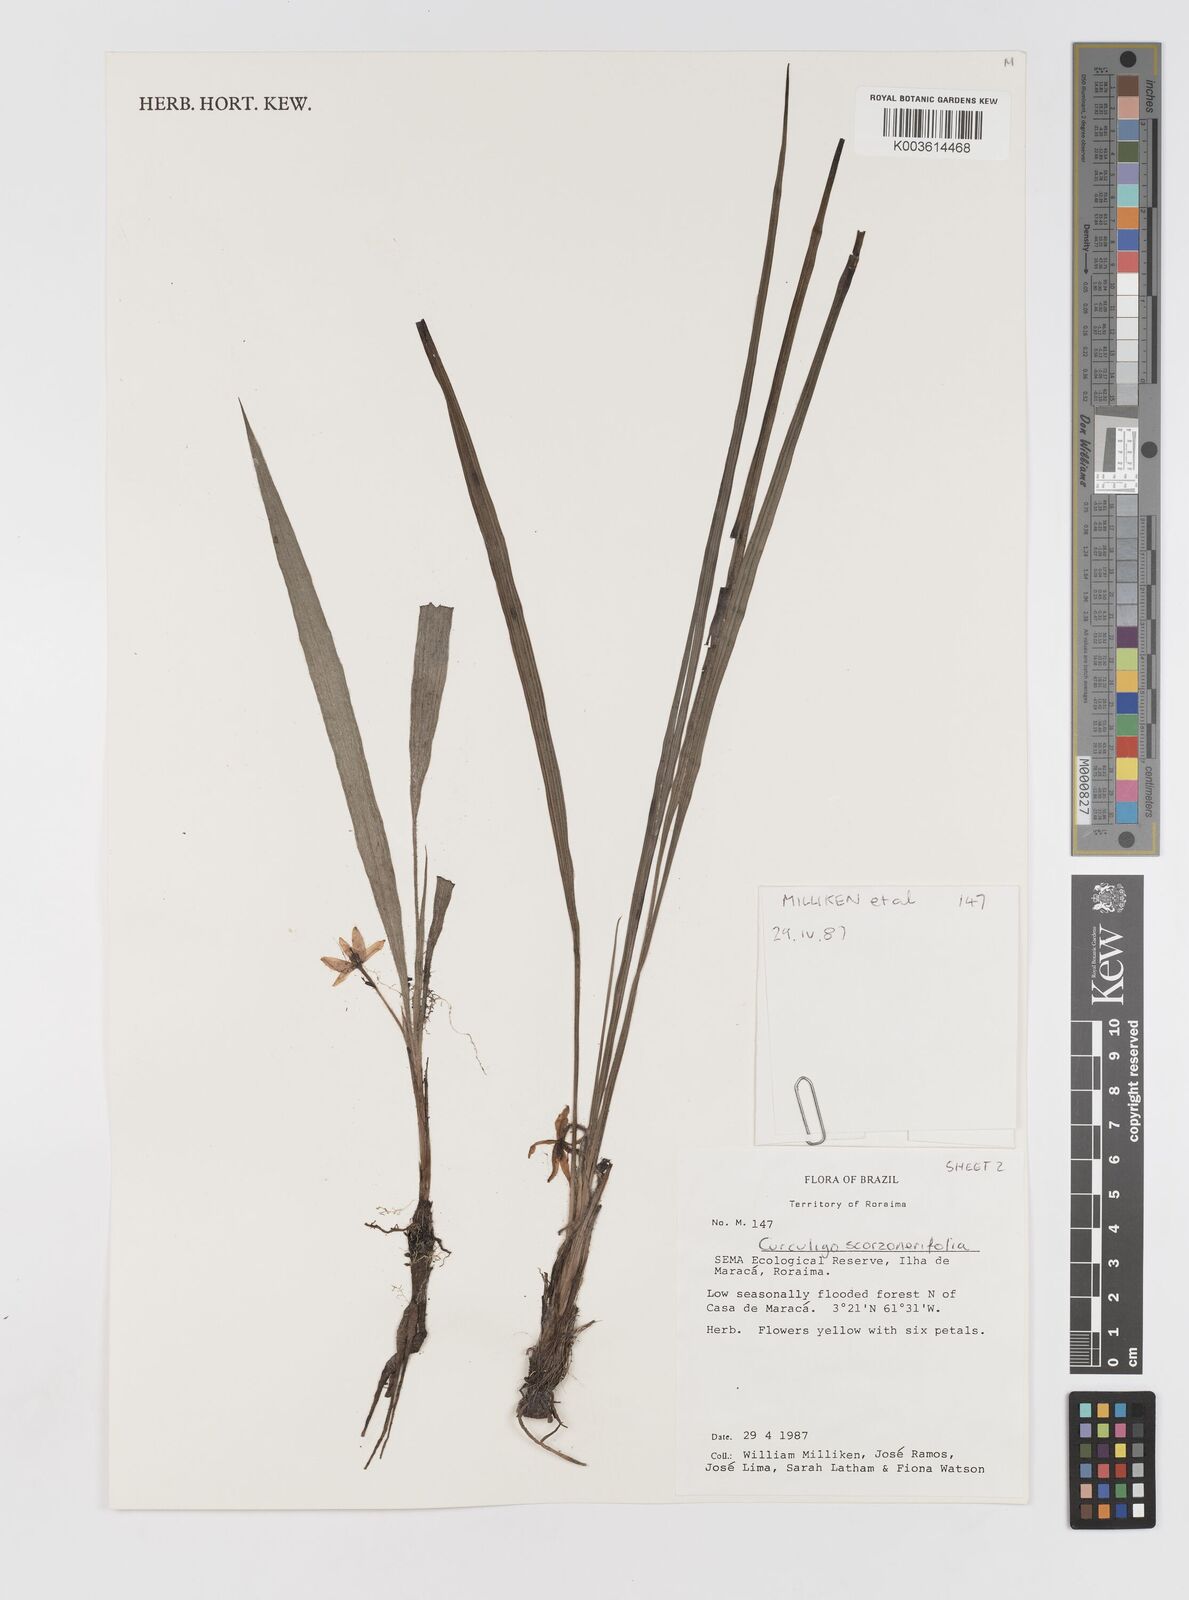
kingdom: Plantae
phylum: Tracheophyta
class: Liliopsida
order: Asparagales
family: Hypoxidaceae
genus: Curculigo
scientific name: Curculigo scorzonerifolia
